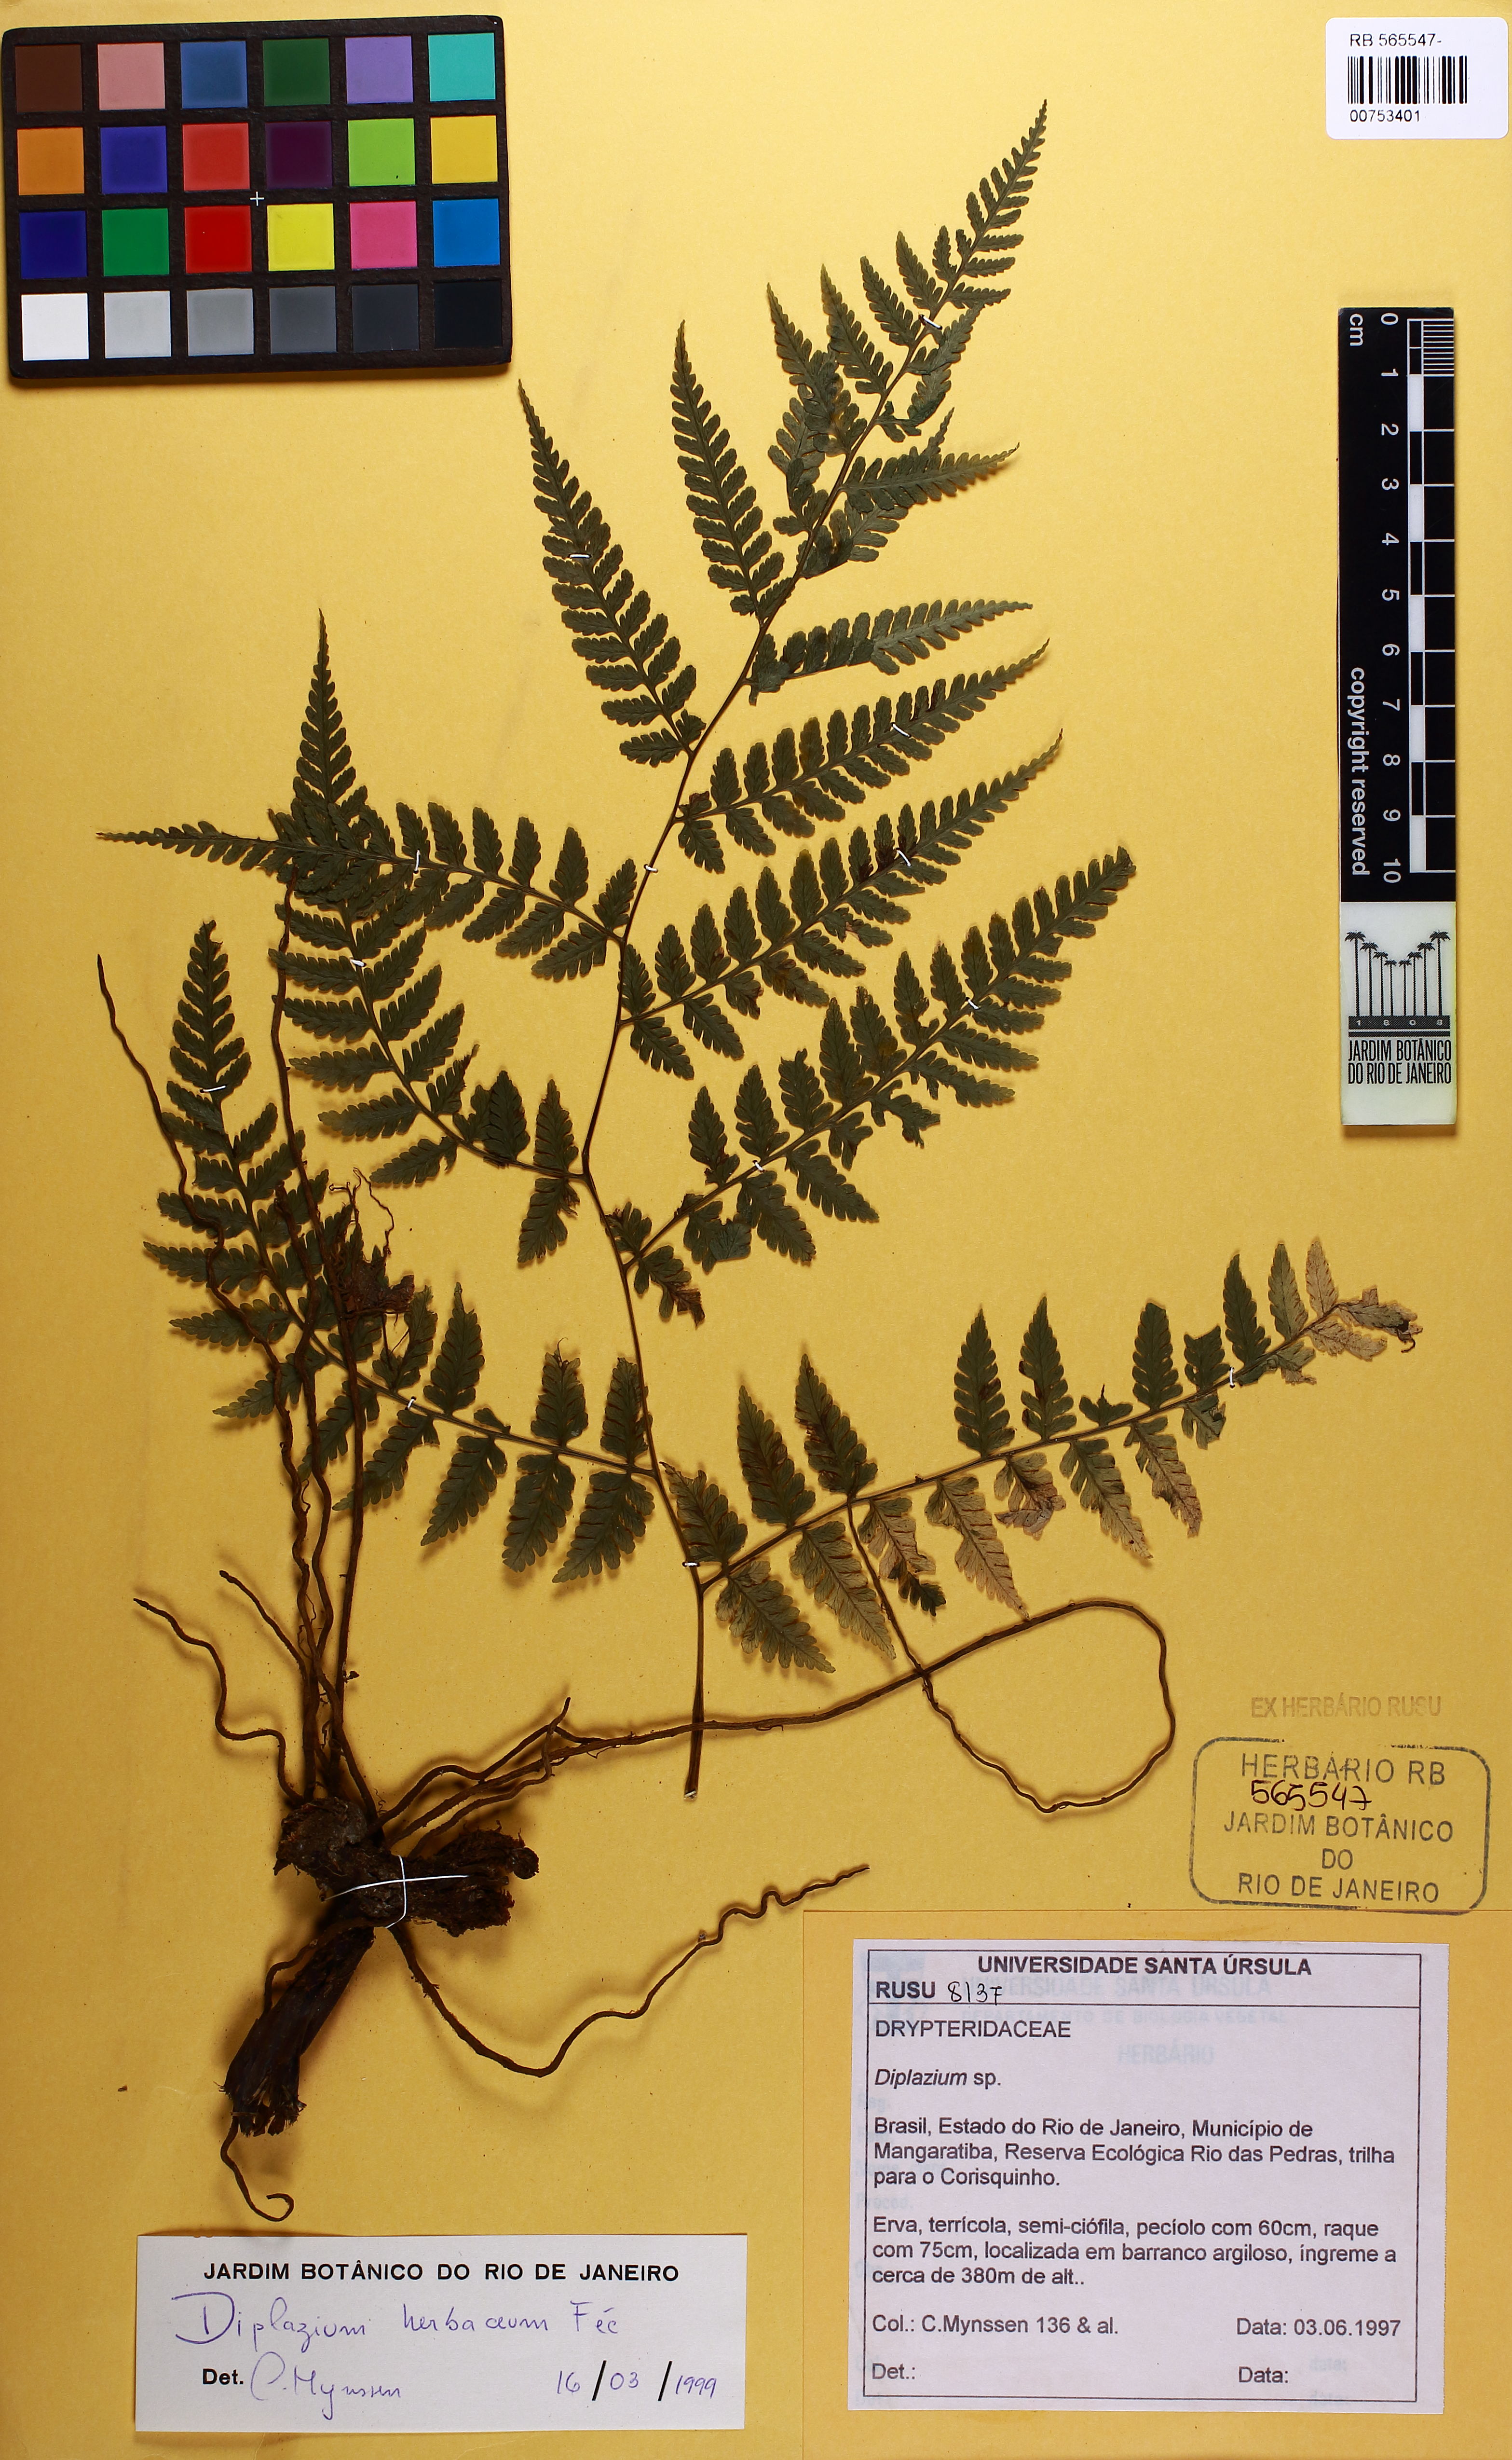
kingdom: Plantae
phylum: Tracheophyta
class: Polypodiopsida
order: Polypodiales
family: Athyriaceae
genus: Diplazium
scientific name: Diplazium herbaceum
